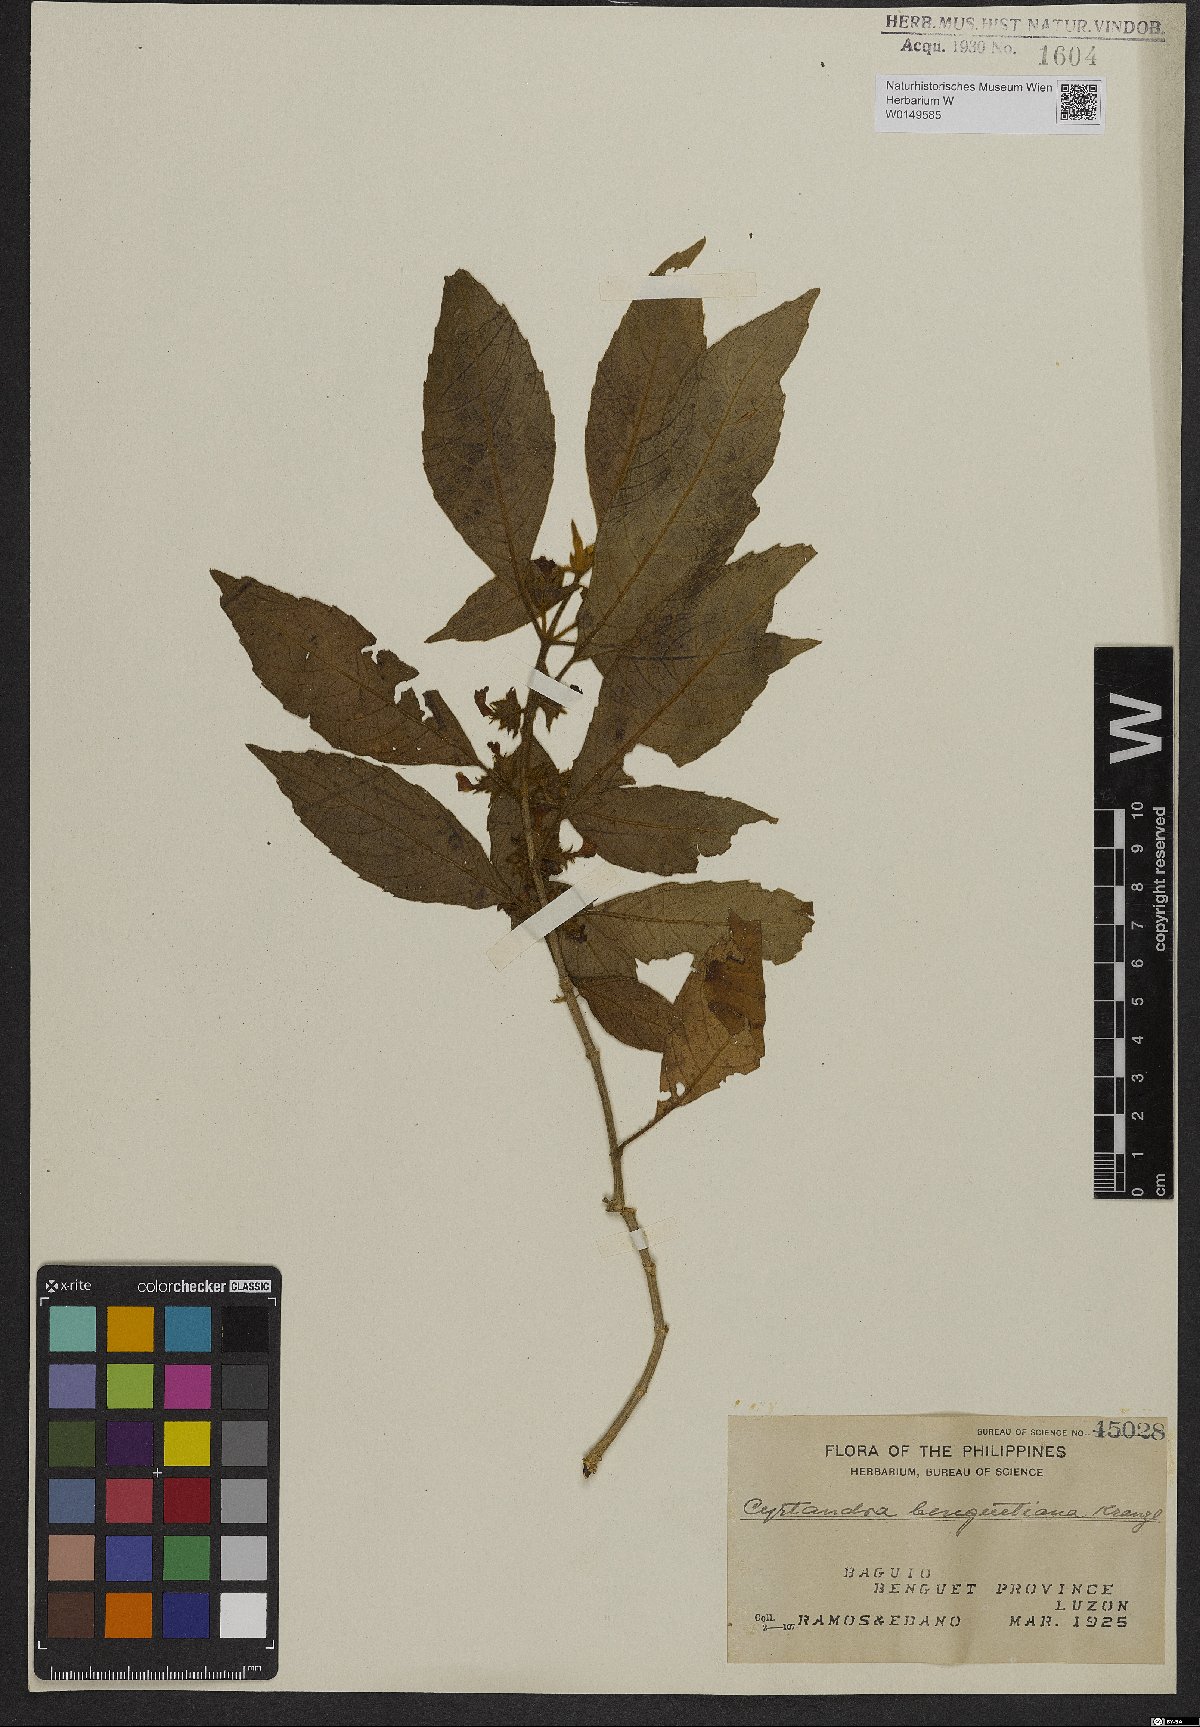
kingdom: Plantae
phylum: Tracheophyta
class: Magnoliopsida
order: Lamiales
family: Gesneriaceae
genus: Cyrtandra
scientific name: Cyrtandra benguetiana
